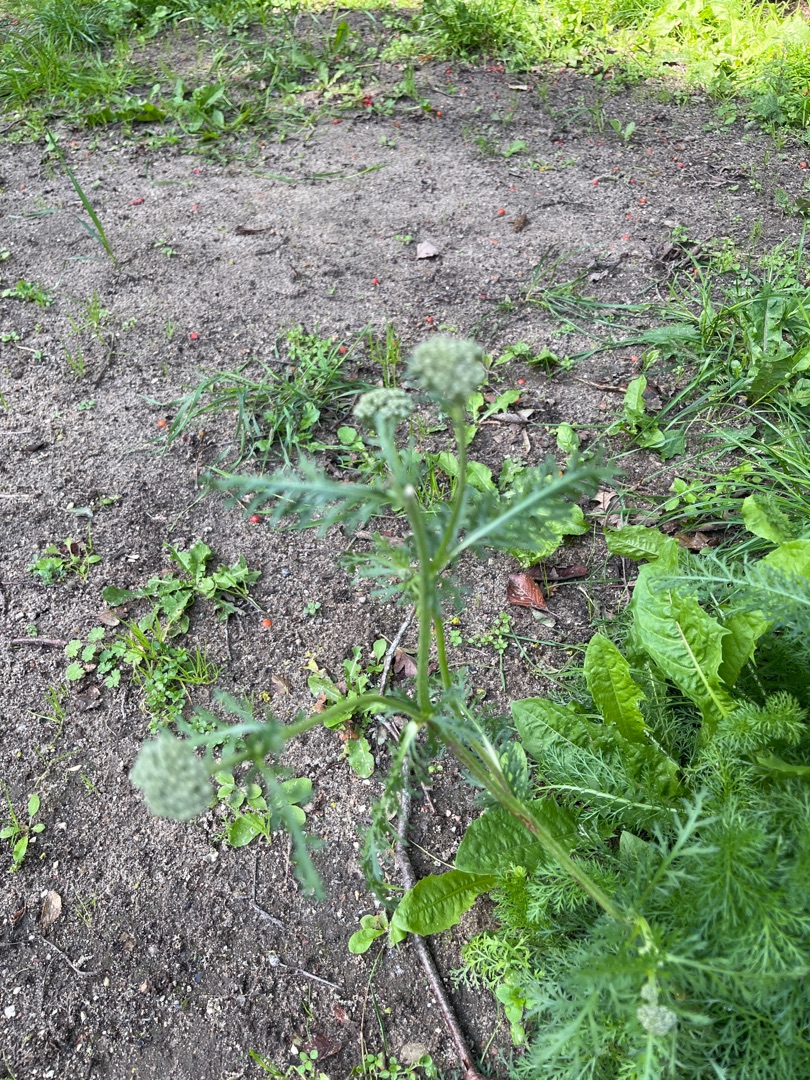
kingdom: Plantae
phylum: Tracheophyta
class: Magnoliopsida
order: Asterales
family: Asteraceae
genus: Achillea
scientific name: Achillea millefolium
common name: Almindelig røllike
